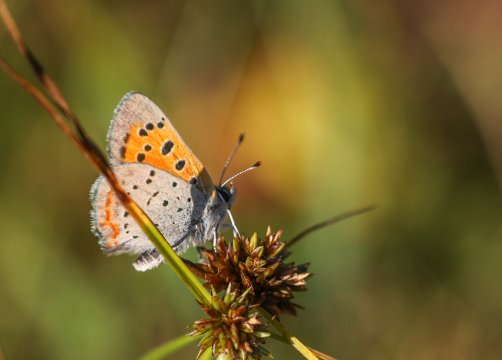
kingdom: Animalia
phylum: Arthropoda
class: Insecta
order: Lepidoptera
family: Lycaenidae
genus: Lycaena
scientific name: Lycaena phlaeas
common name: American Copper
